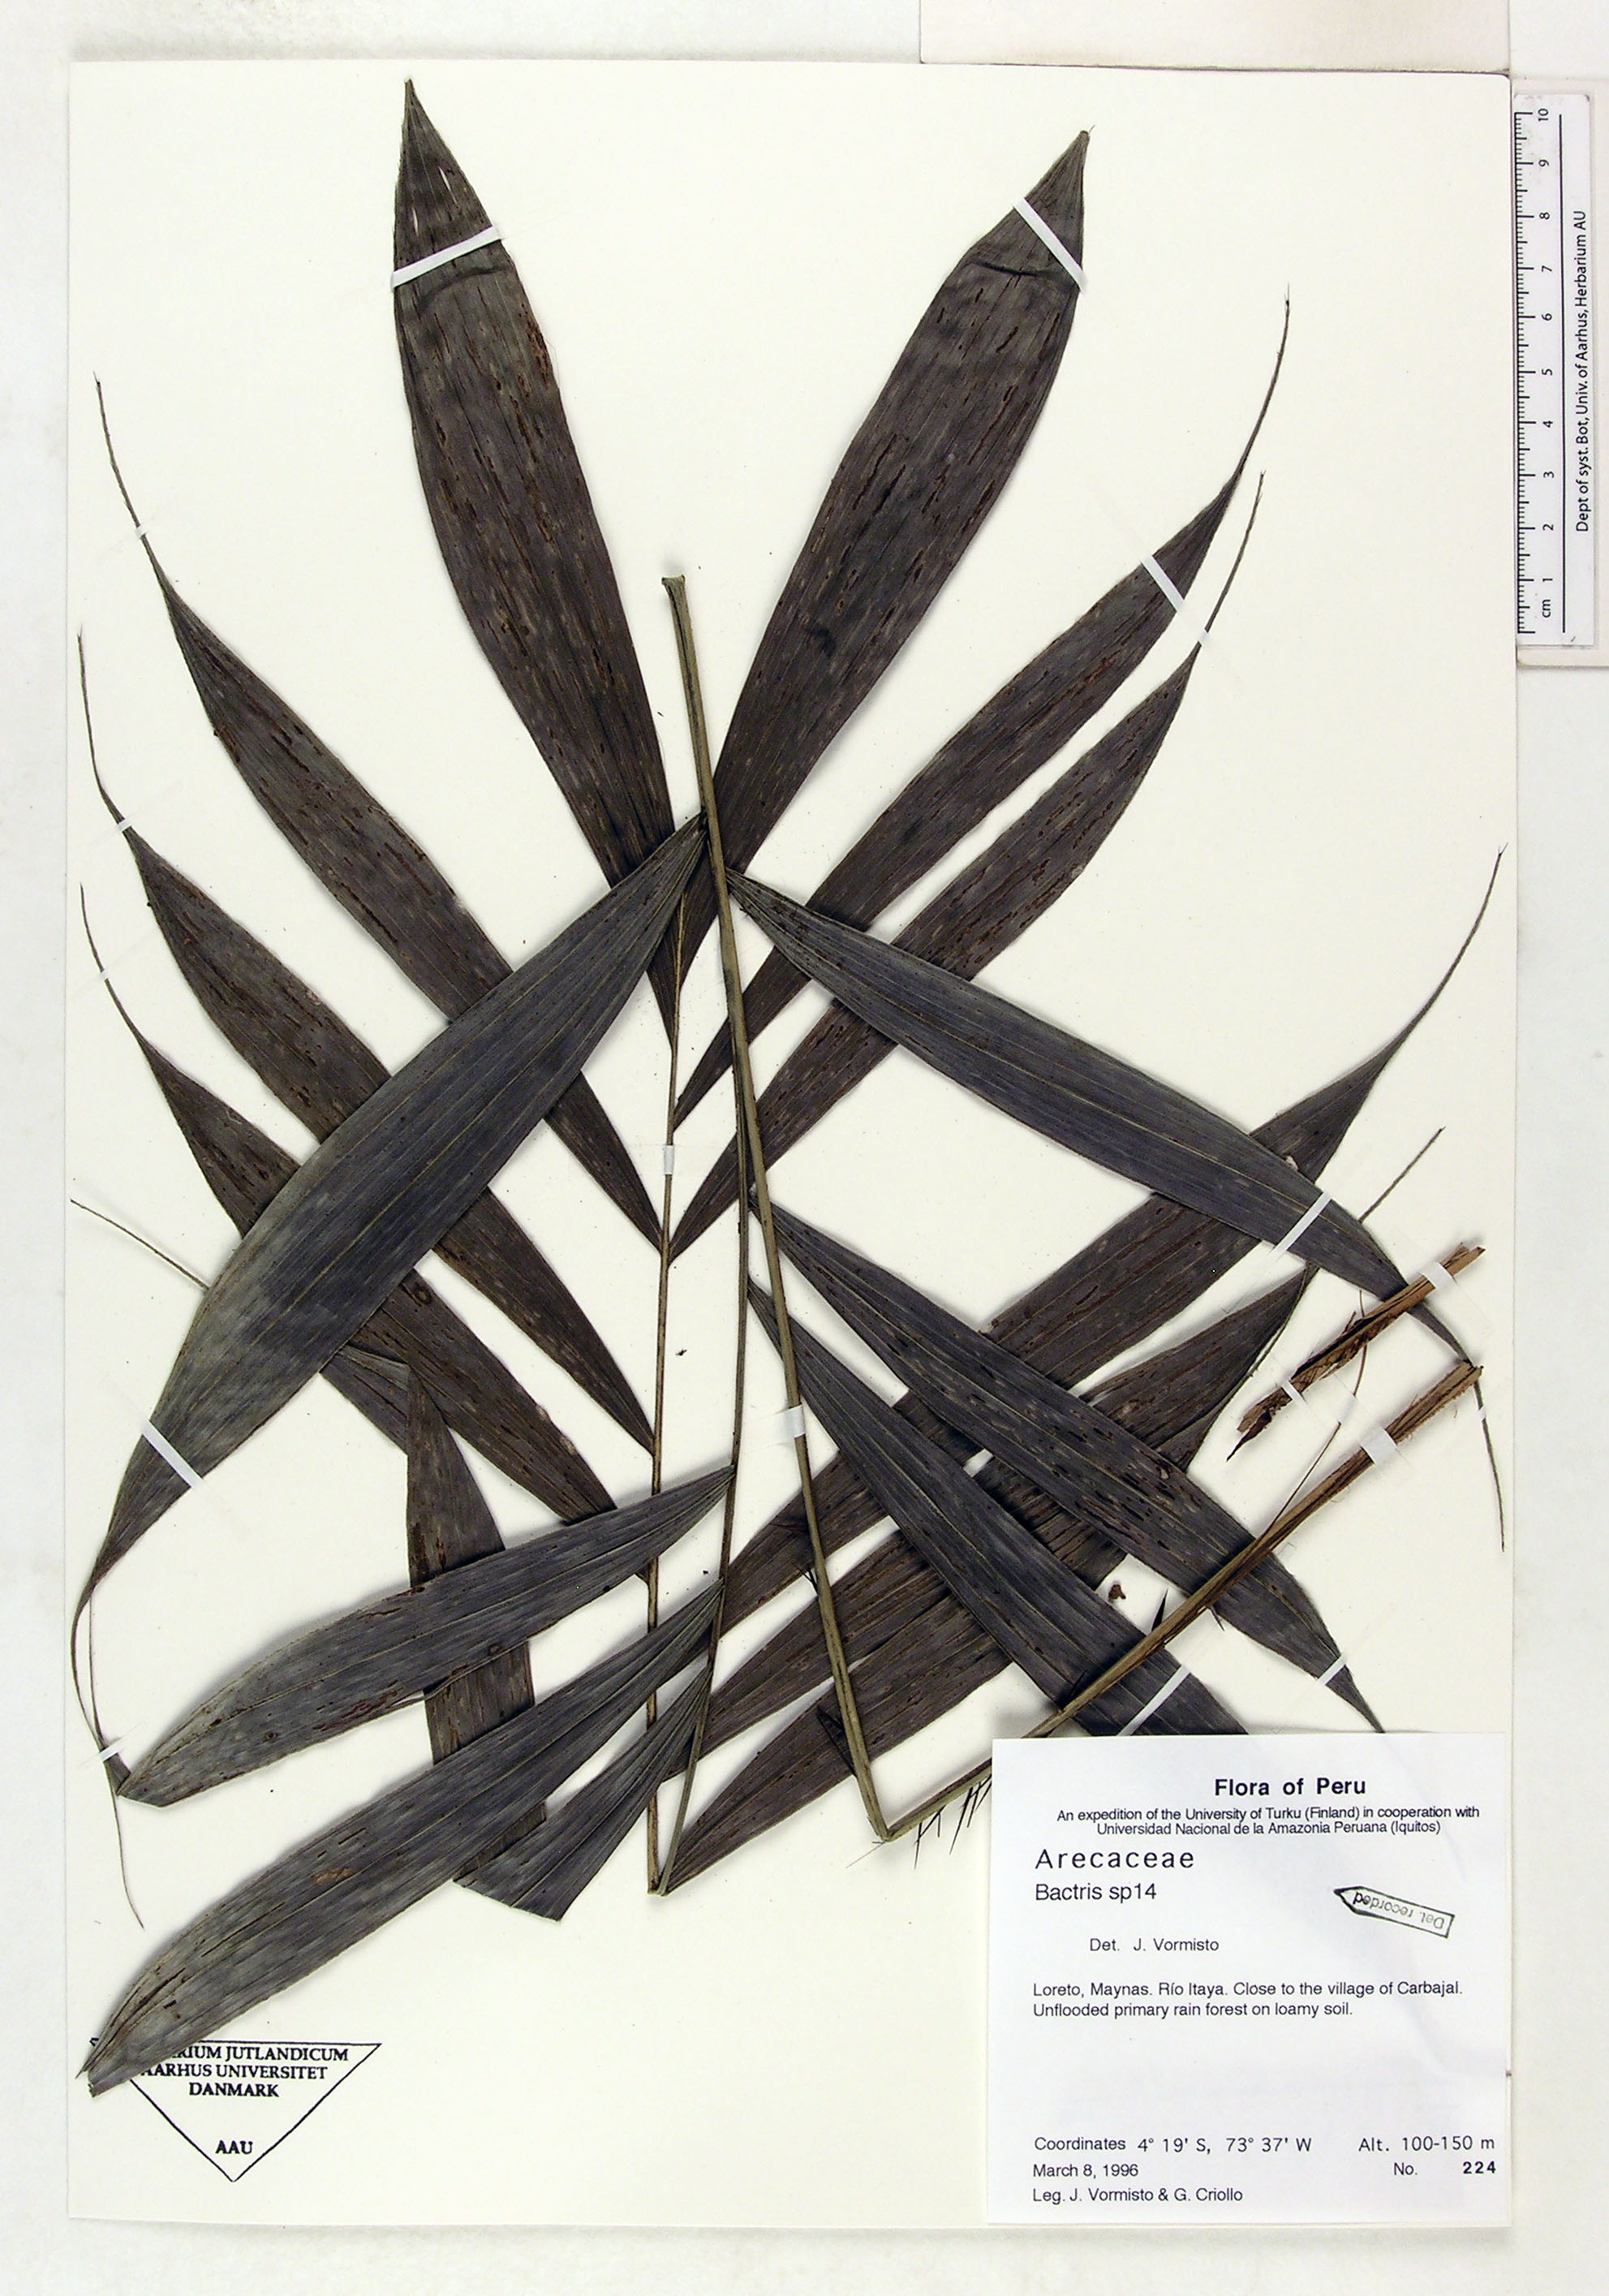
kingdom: Plantae
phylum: Tracheophyta
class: Liliopsida
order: Arecales
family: Arecaceae
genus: Bactris
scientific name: Bactris
